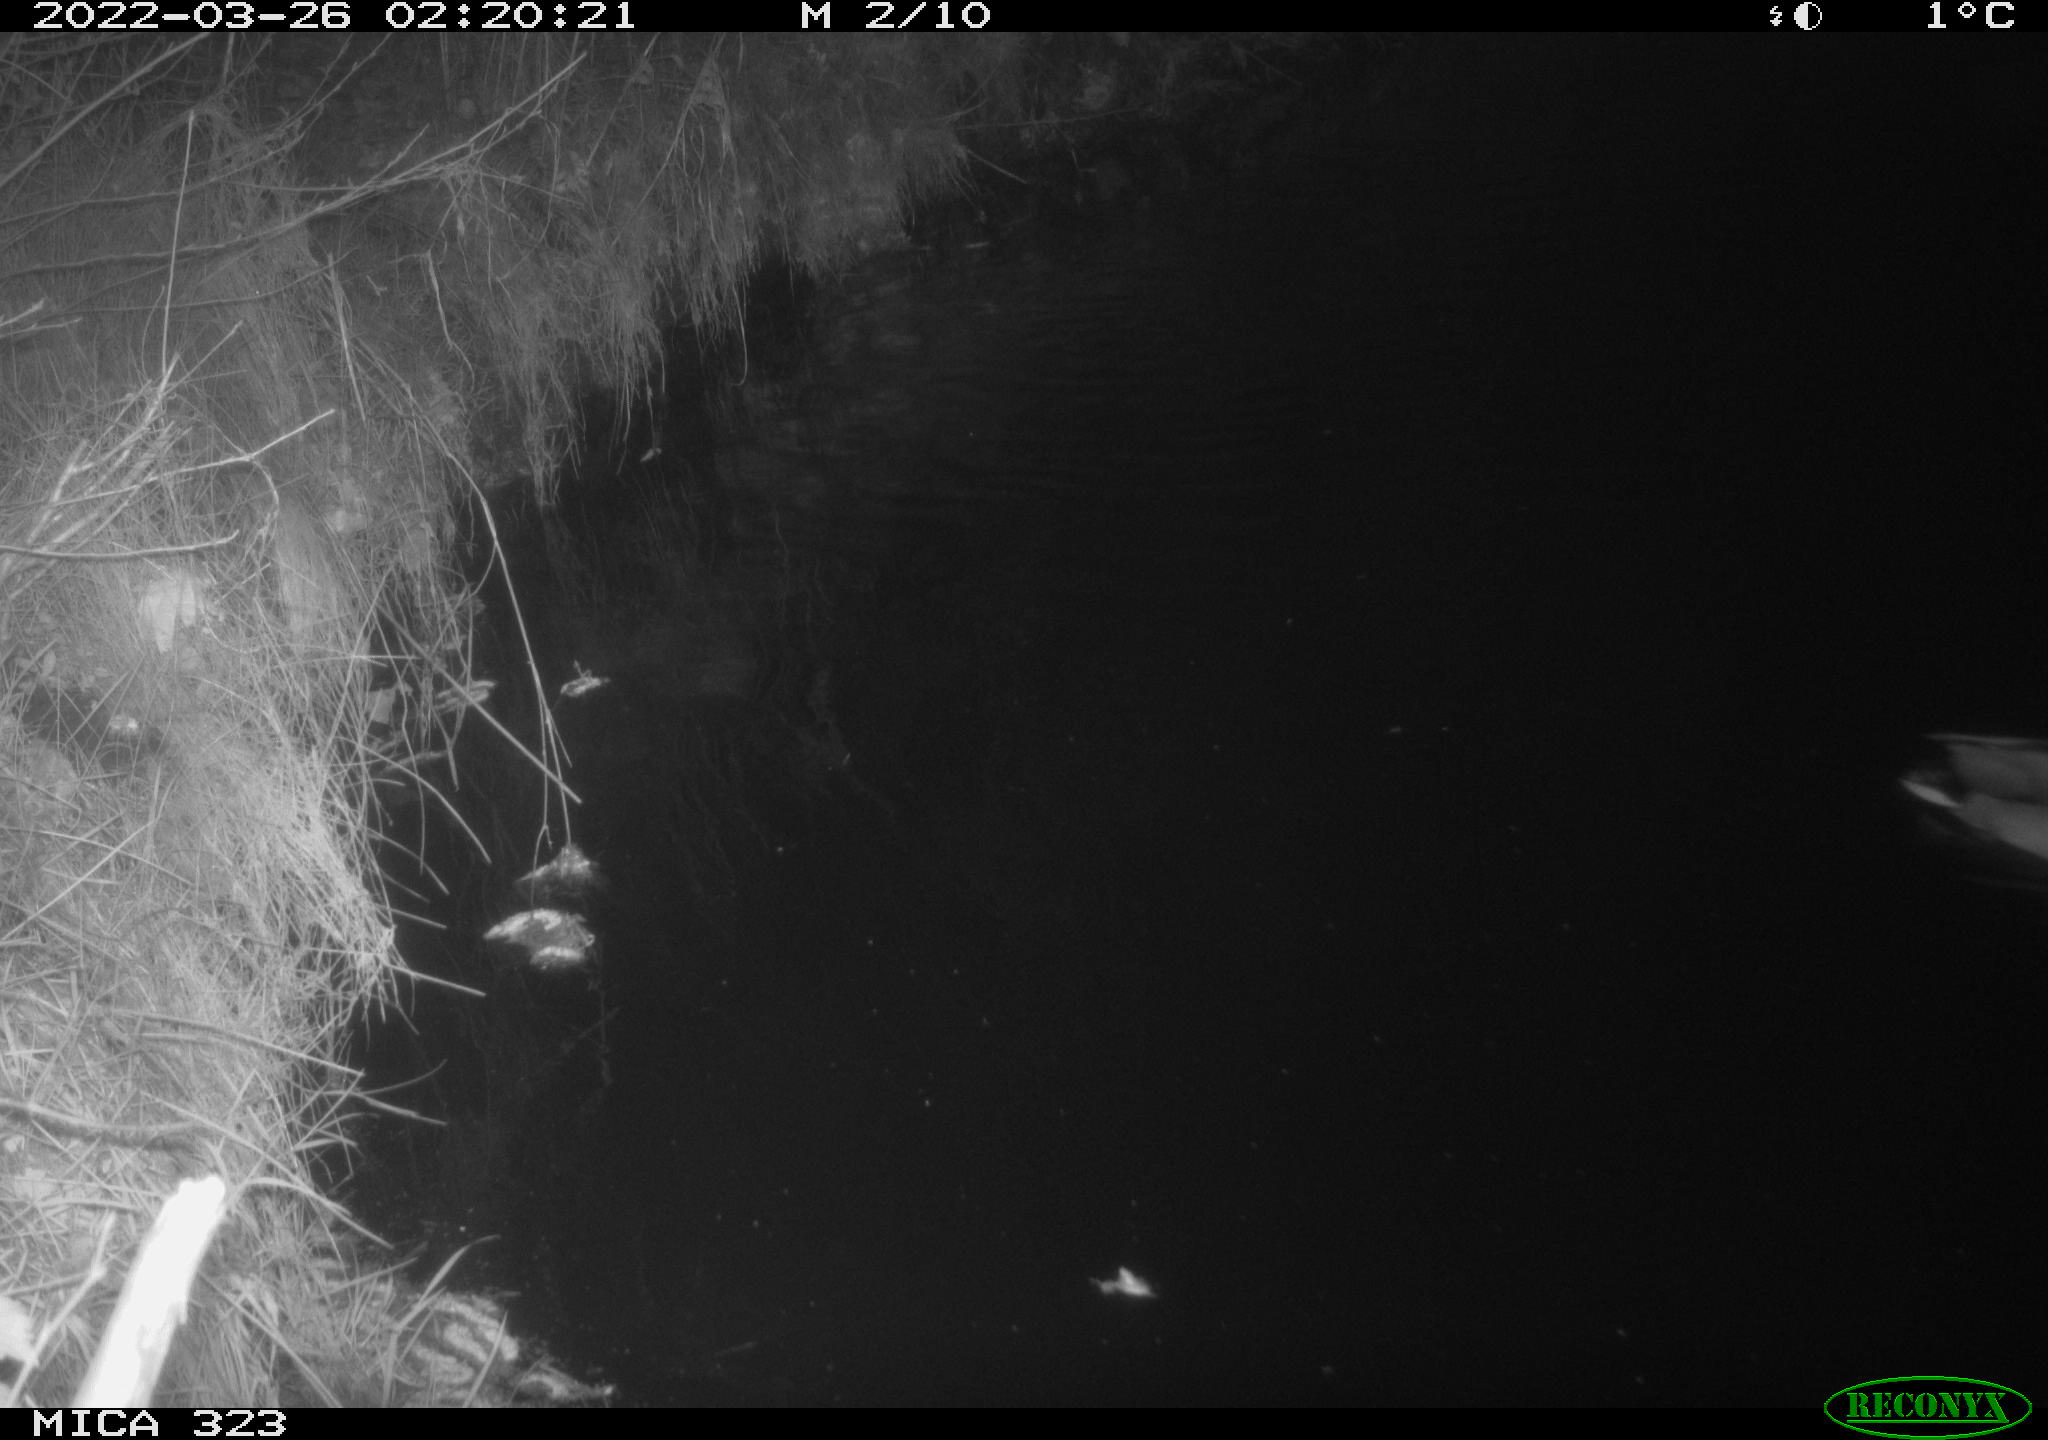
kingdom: Animalia
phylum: Chordata
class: Aves
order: Anseriformes
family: Anatidae
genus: Anas
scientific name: Anas
